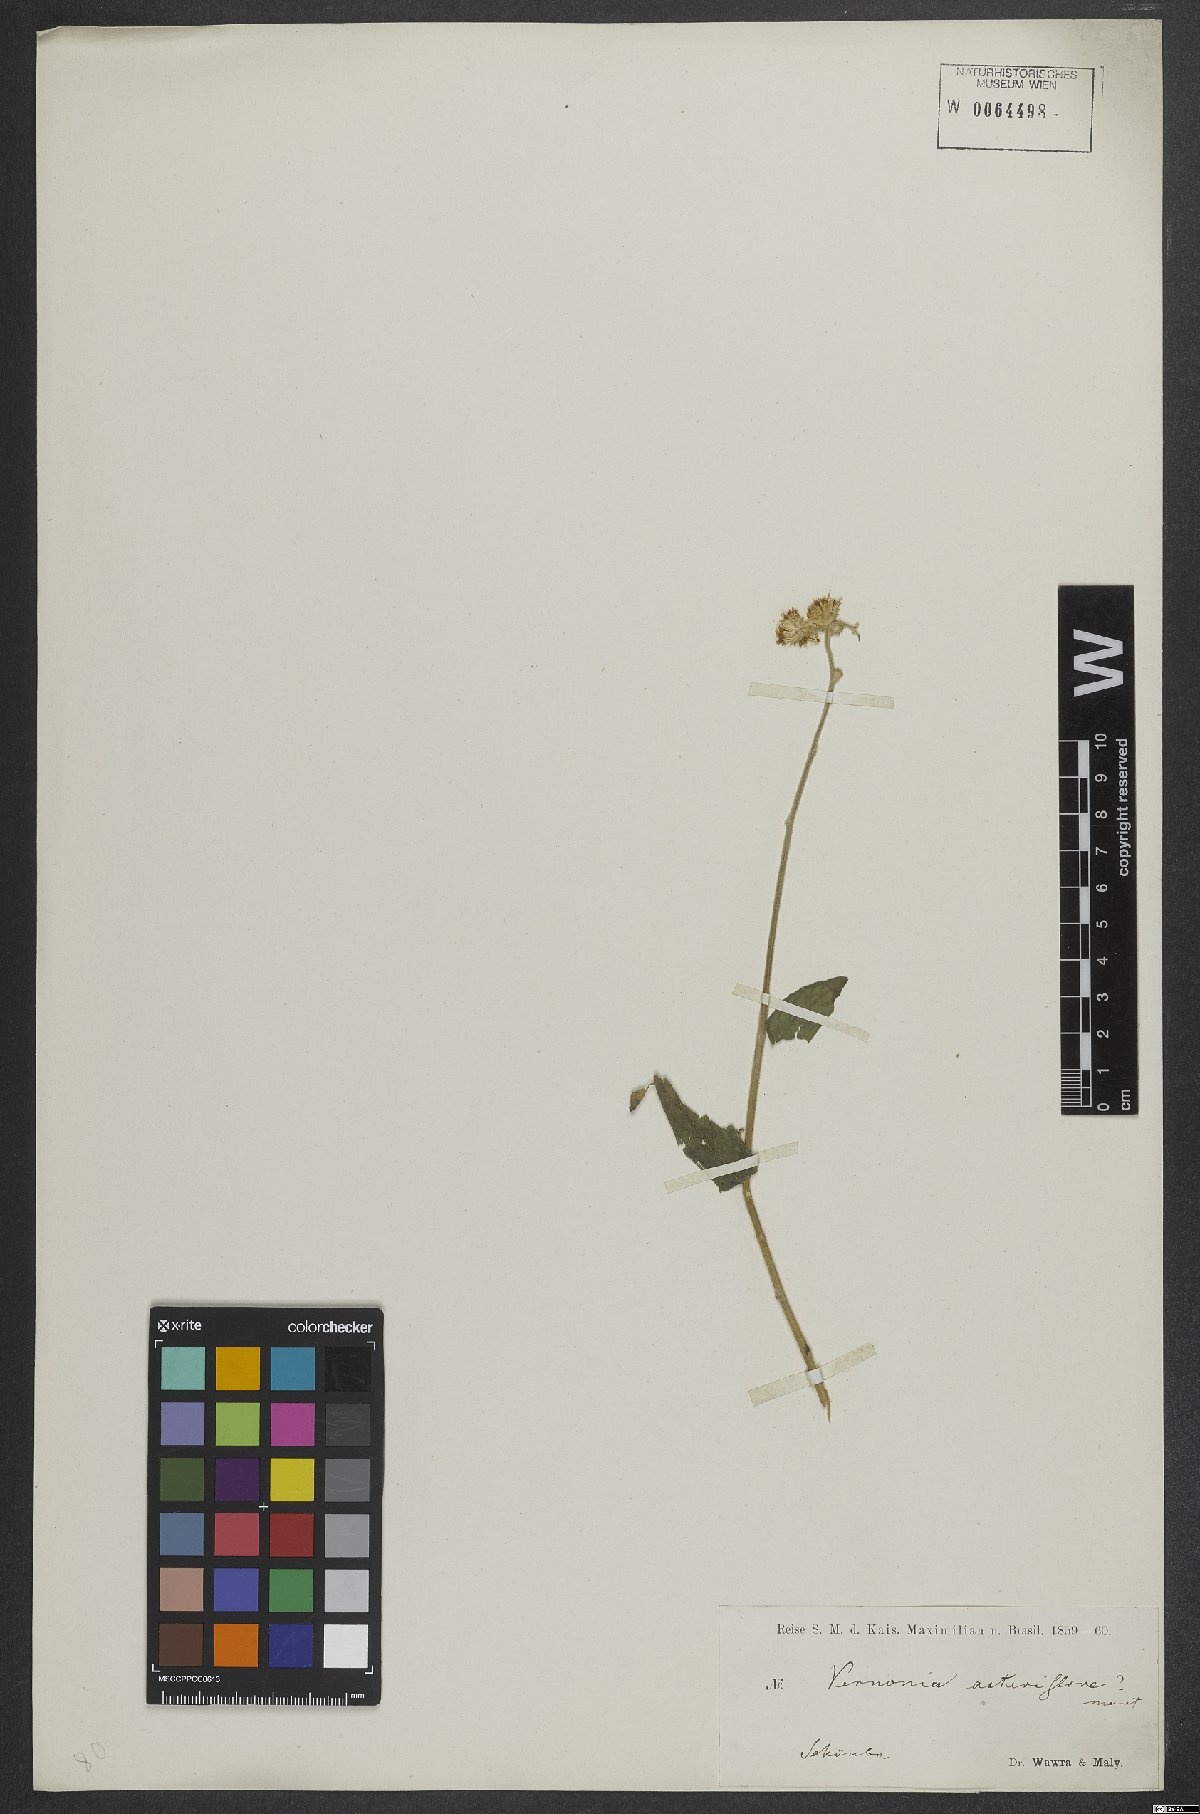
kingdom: Plantae
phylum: Tracheophyta
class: Magnoliopsida
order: Asterales
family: Asteraceae
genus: Vernonia
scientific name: Vernonia schweinfurthii
